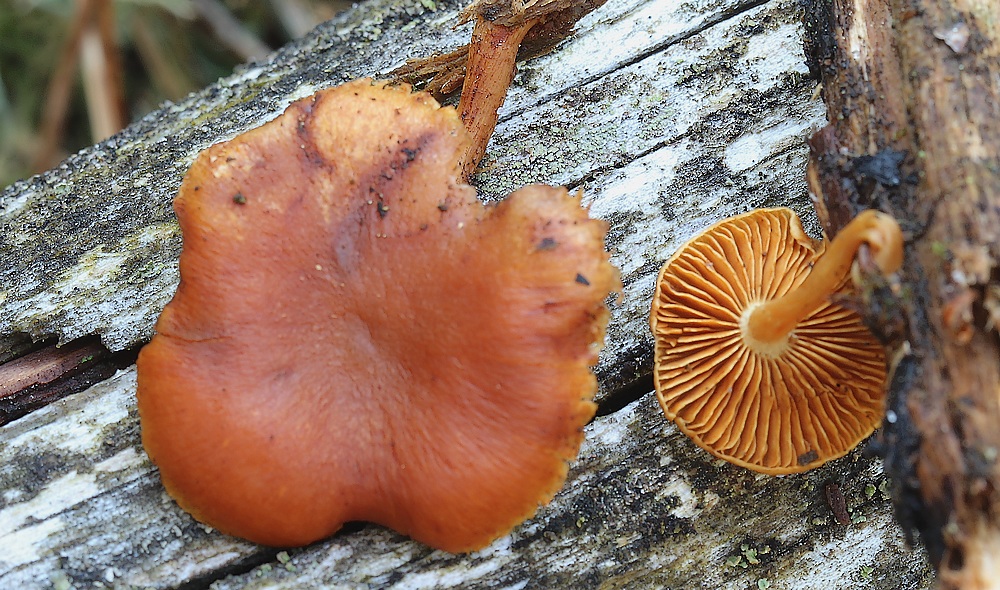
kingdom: Fungi
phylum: Basidiomycota
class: Agaricomycetes
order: Agaricales
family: Hymenogastraceae
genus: Gymnopilus
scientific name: Gymnopilus
